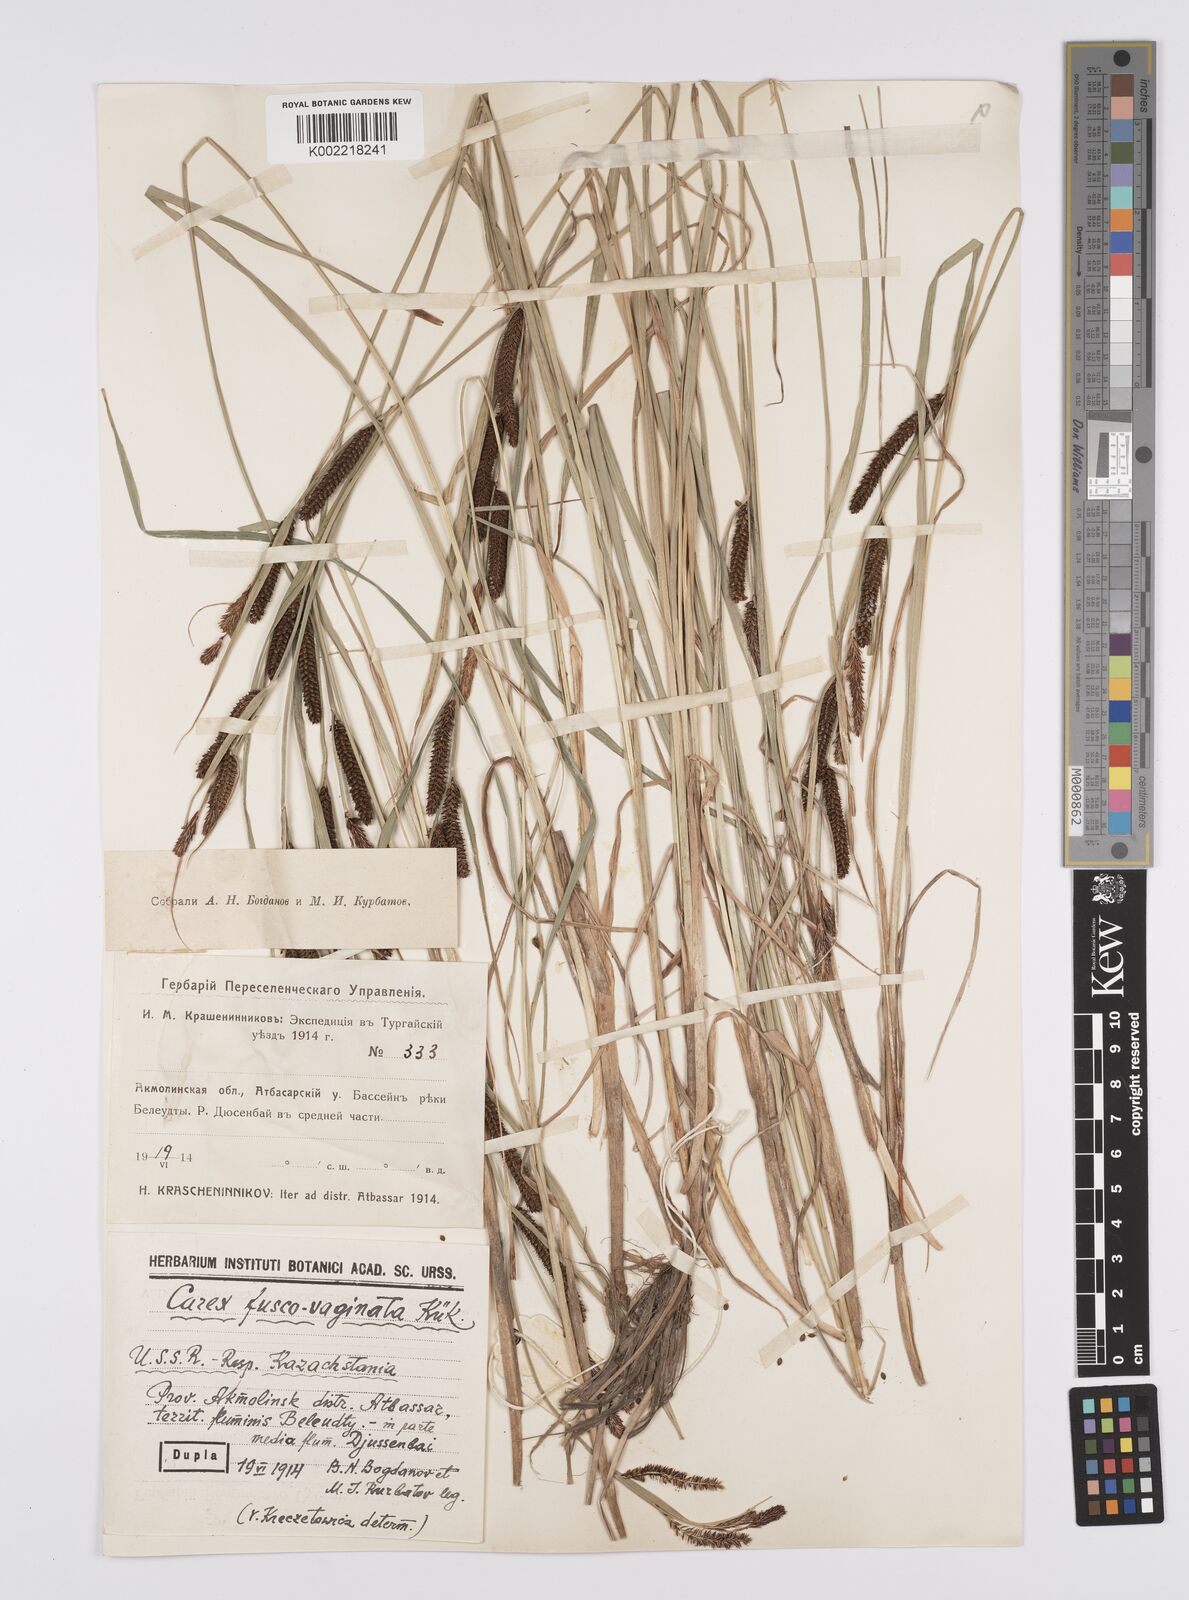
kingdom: Plantae
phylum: Tracheophyta
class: Liliopsida
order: Poales
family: Cyperaceae
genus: Carex
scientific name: Carex acuta
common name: Slender tufted-sedge
